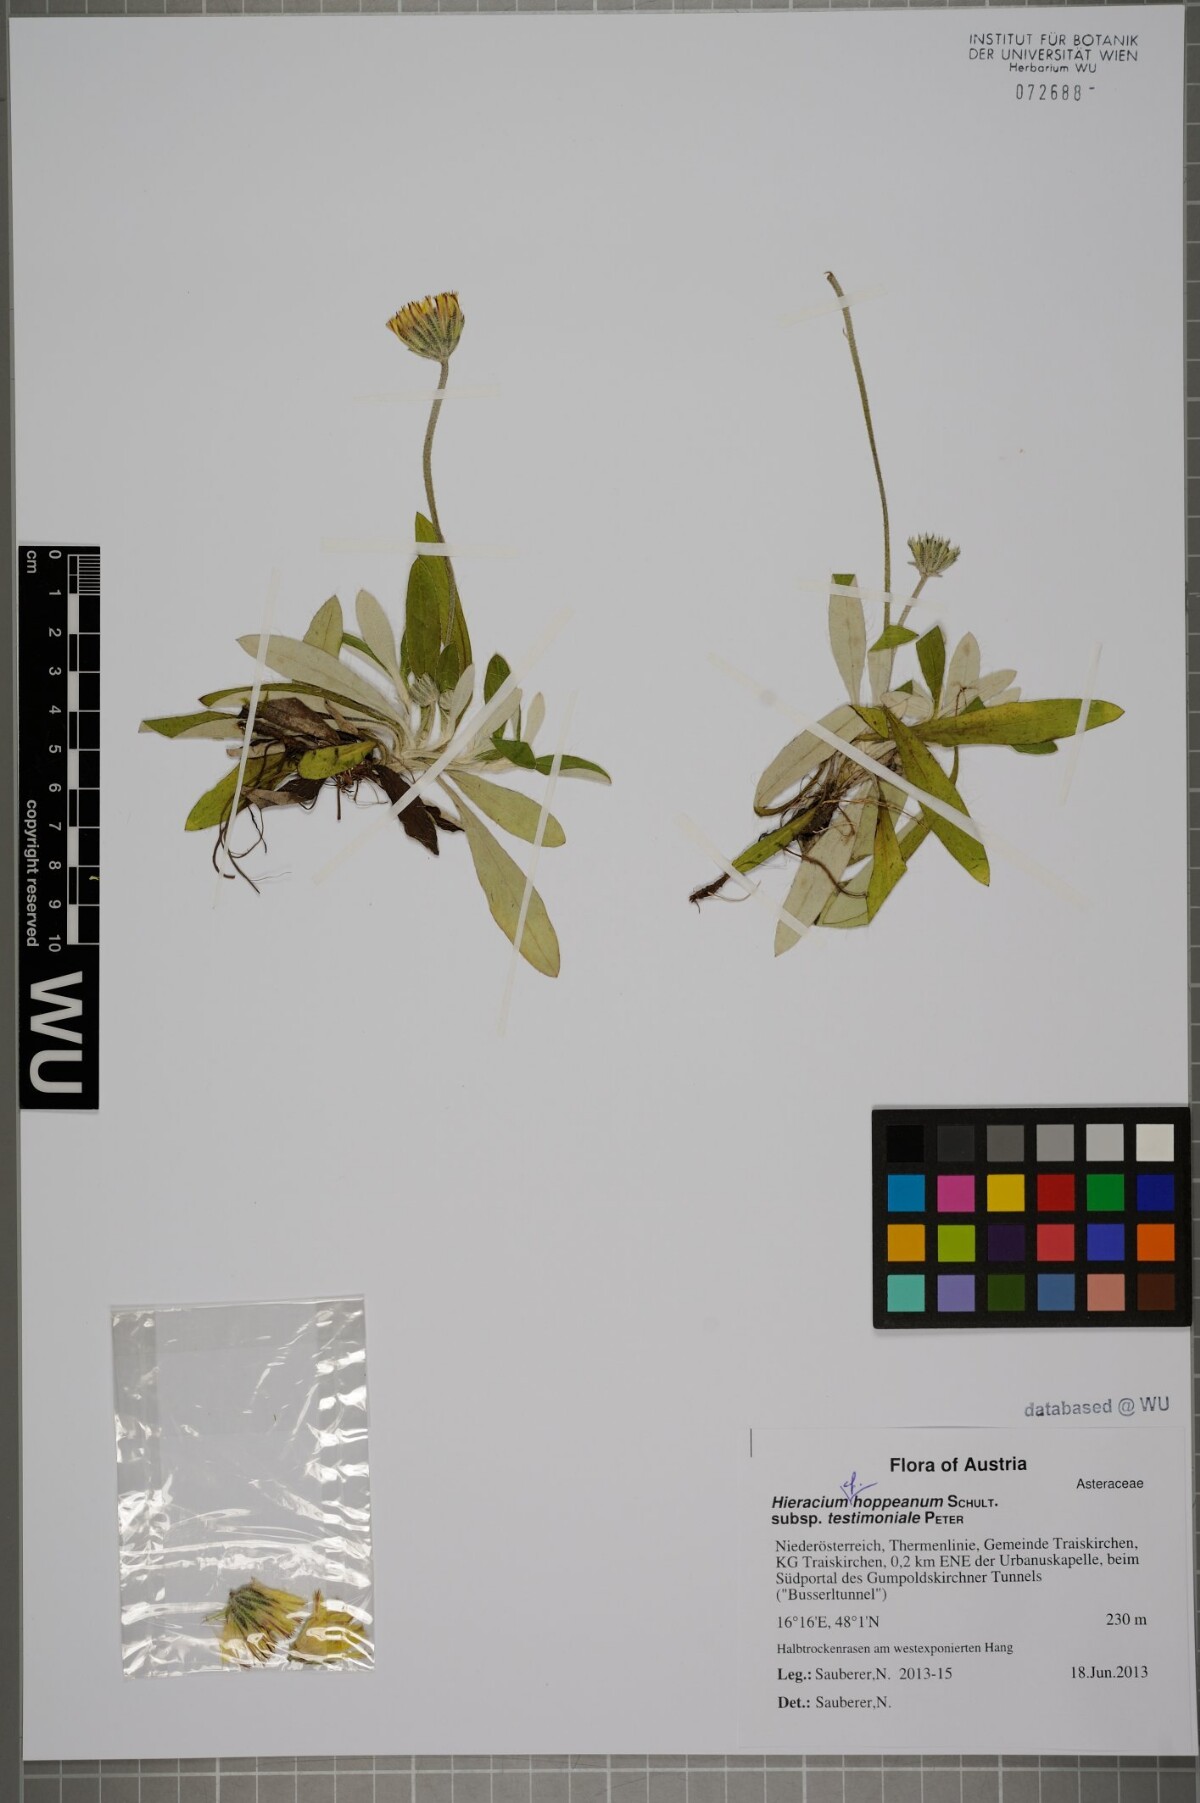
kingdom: Plantae
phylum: Tracheophyta
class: Magnoliopsida
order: Asterales
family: Asteraceae
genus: Pilosella
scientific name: Pilosella leucopsilon
